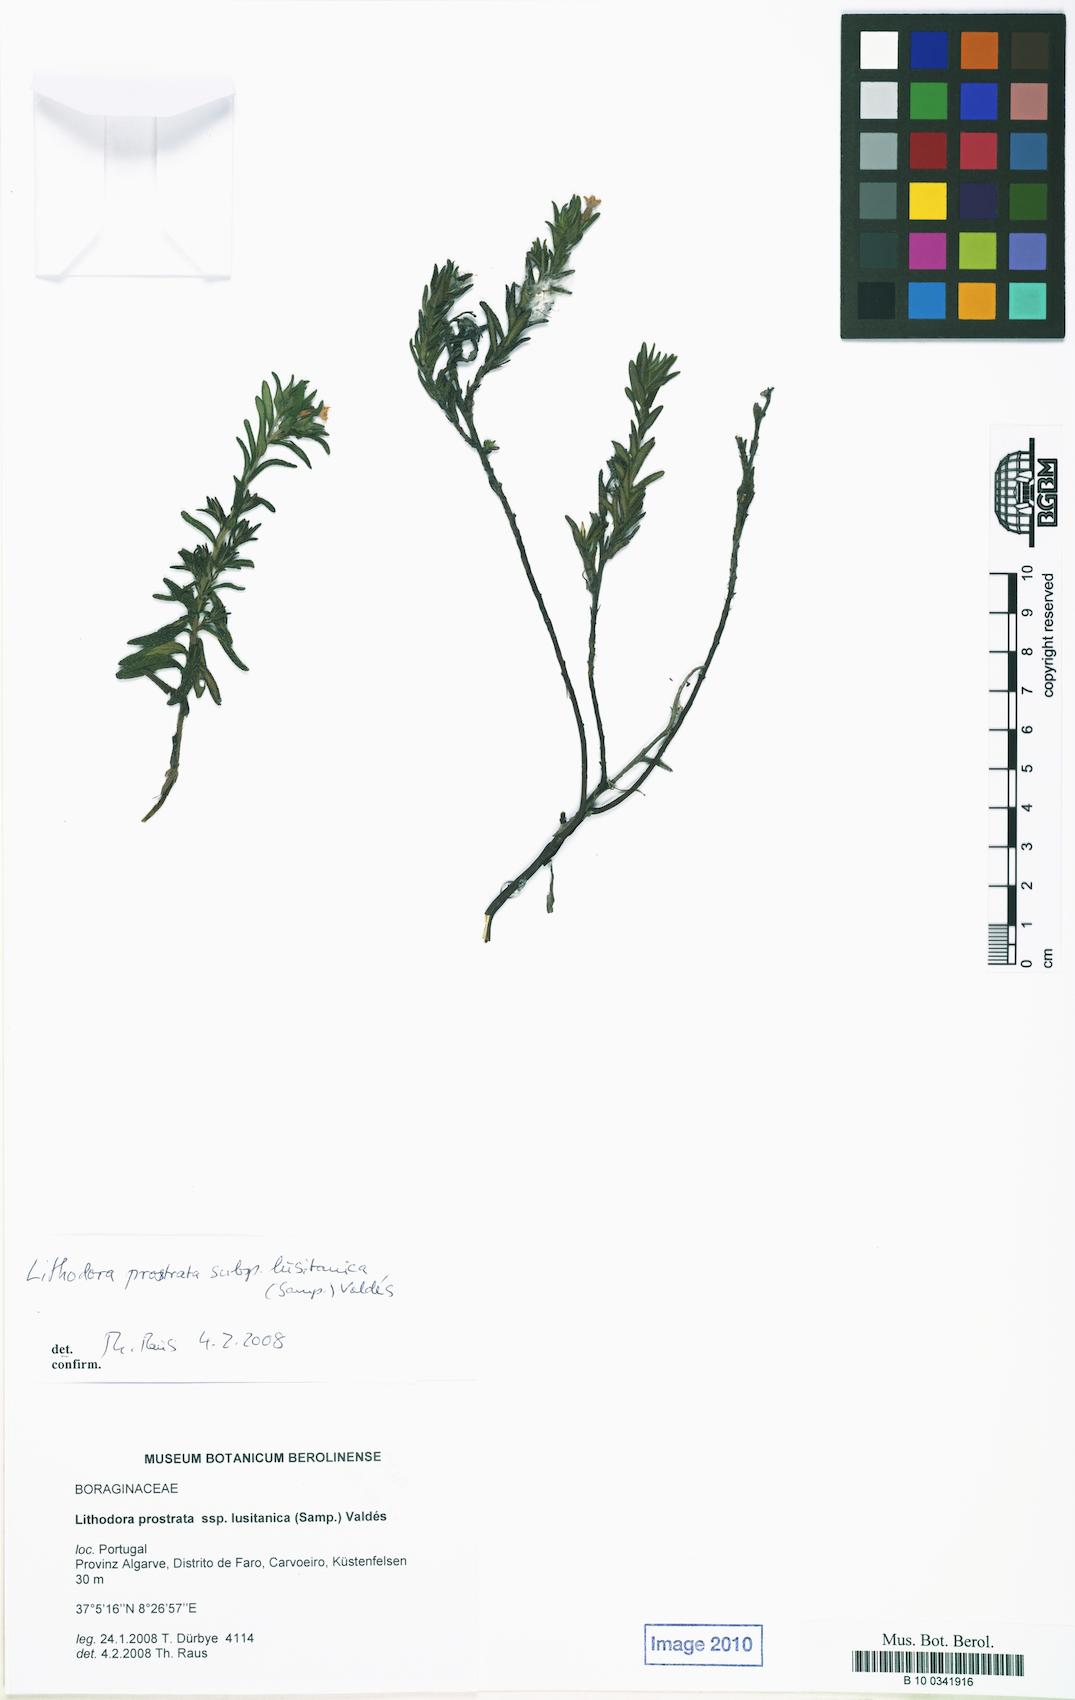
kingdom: Plantae
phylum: Tracheophyta
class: Magnoliopsida
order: Boraginales
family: Boraginaceae
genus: Glandora
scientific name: Glandora prostrata
